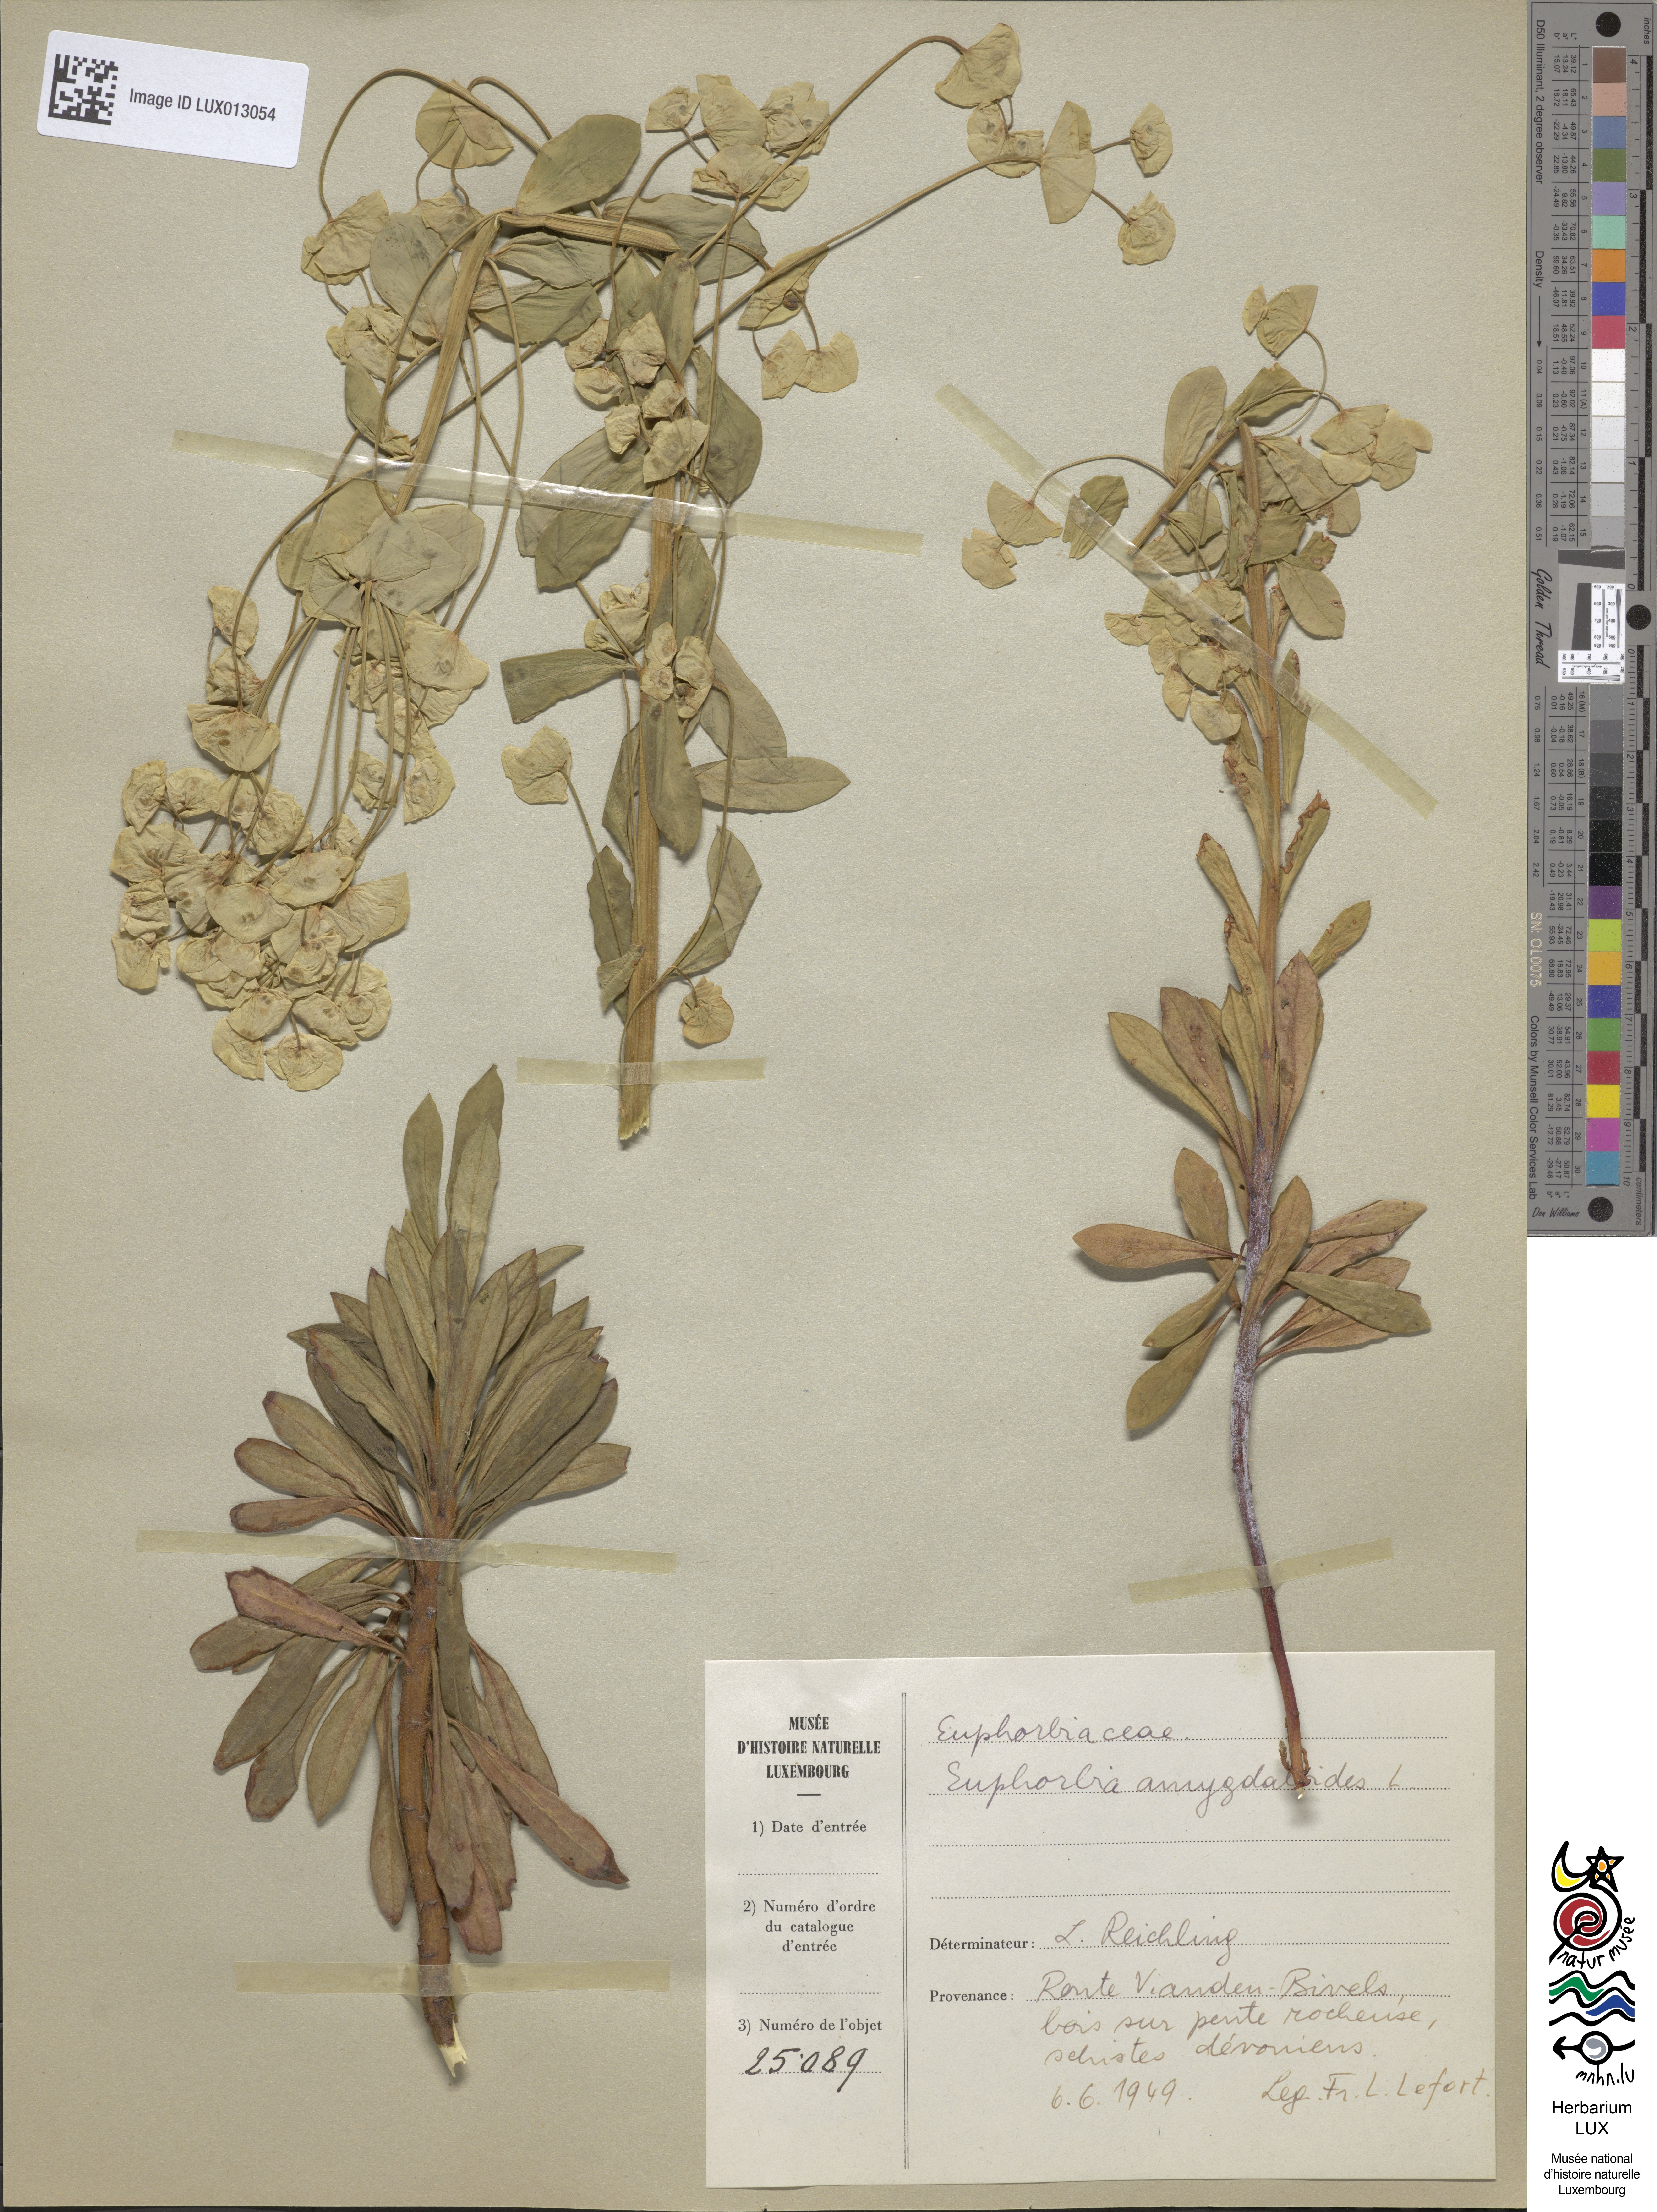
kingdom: Plantae
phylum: Tracheophyta
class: Magnoliopsida
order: Malpighiales
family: Euphorbiaceae
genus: Euphorbia
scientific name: Euphorbia amygdaloides
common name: Wood spurge
